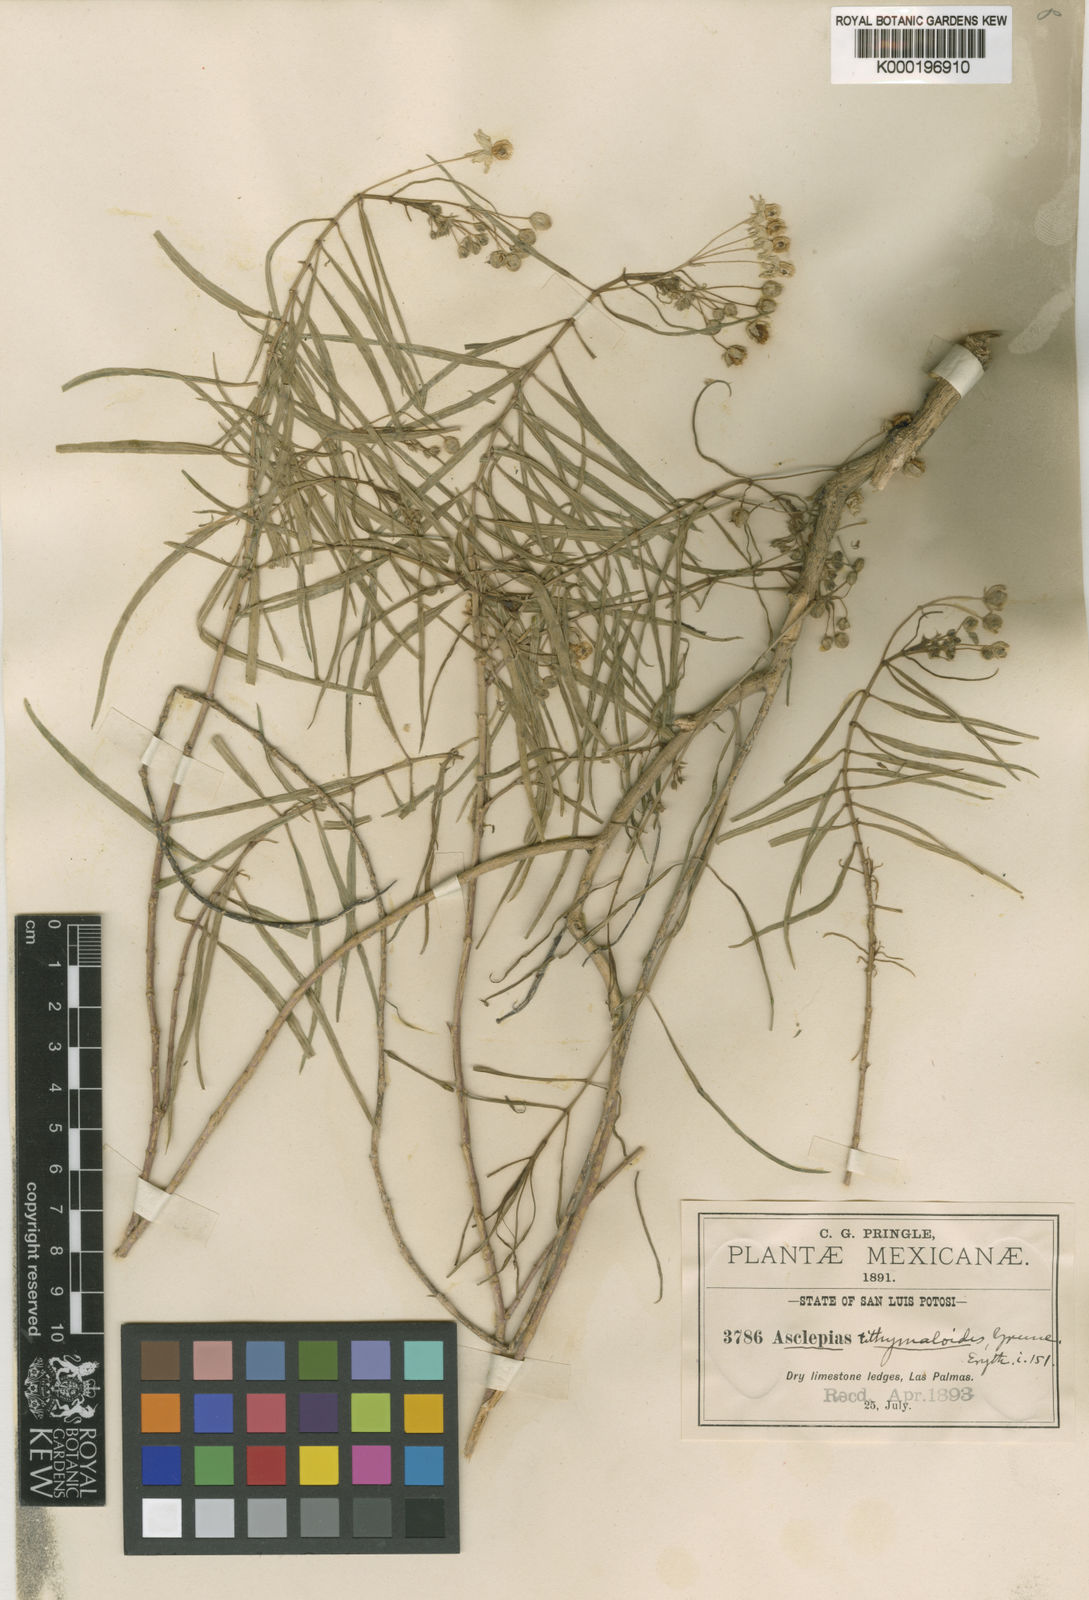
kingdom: Plantae
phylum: Tracheophyta
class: Magnoliopsida
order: Gentianales
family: Apocynaceae
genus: Asclepias
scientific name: Asclepias coulteri
